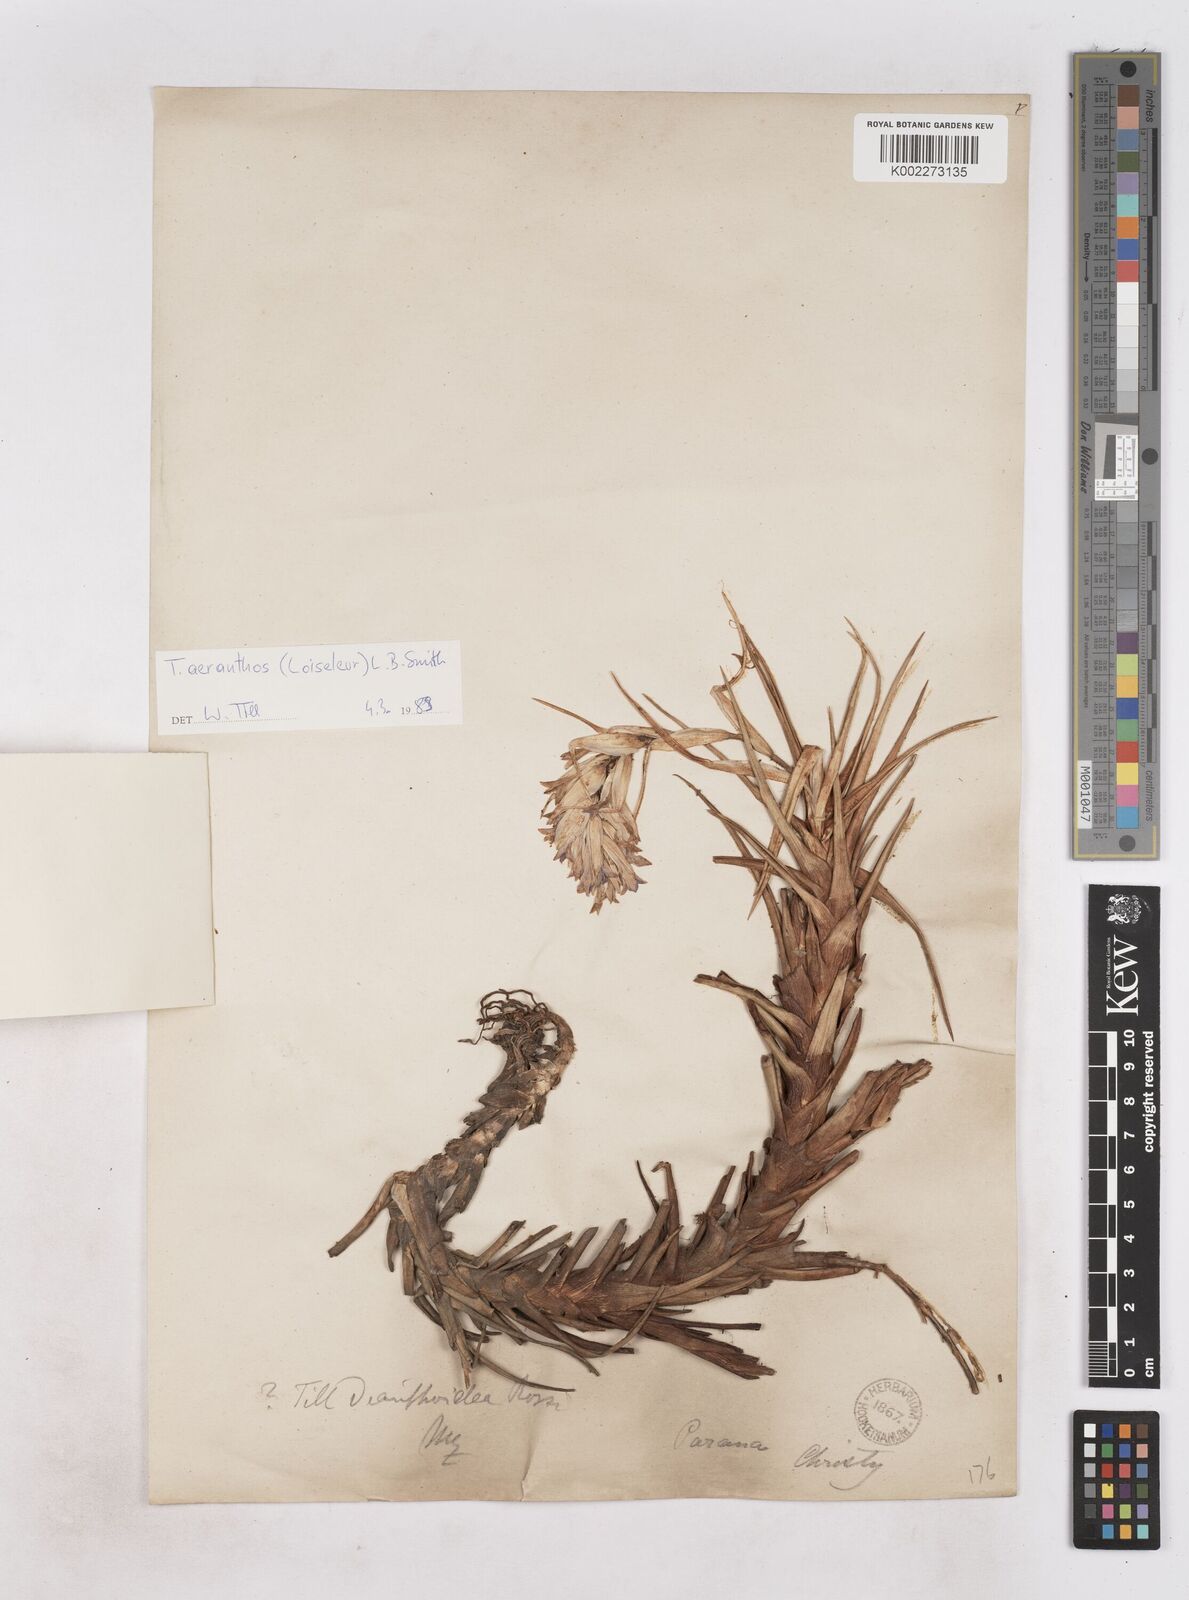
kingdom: Plantae
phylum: Tracheophyta
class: Liliopsida
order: Poales
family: Bromeliaceae
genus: Tillandsia
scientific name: Tillandsia aeranthos
